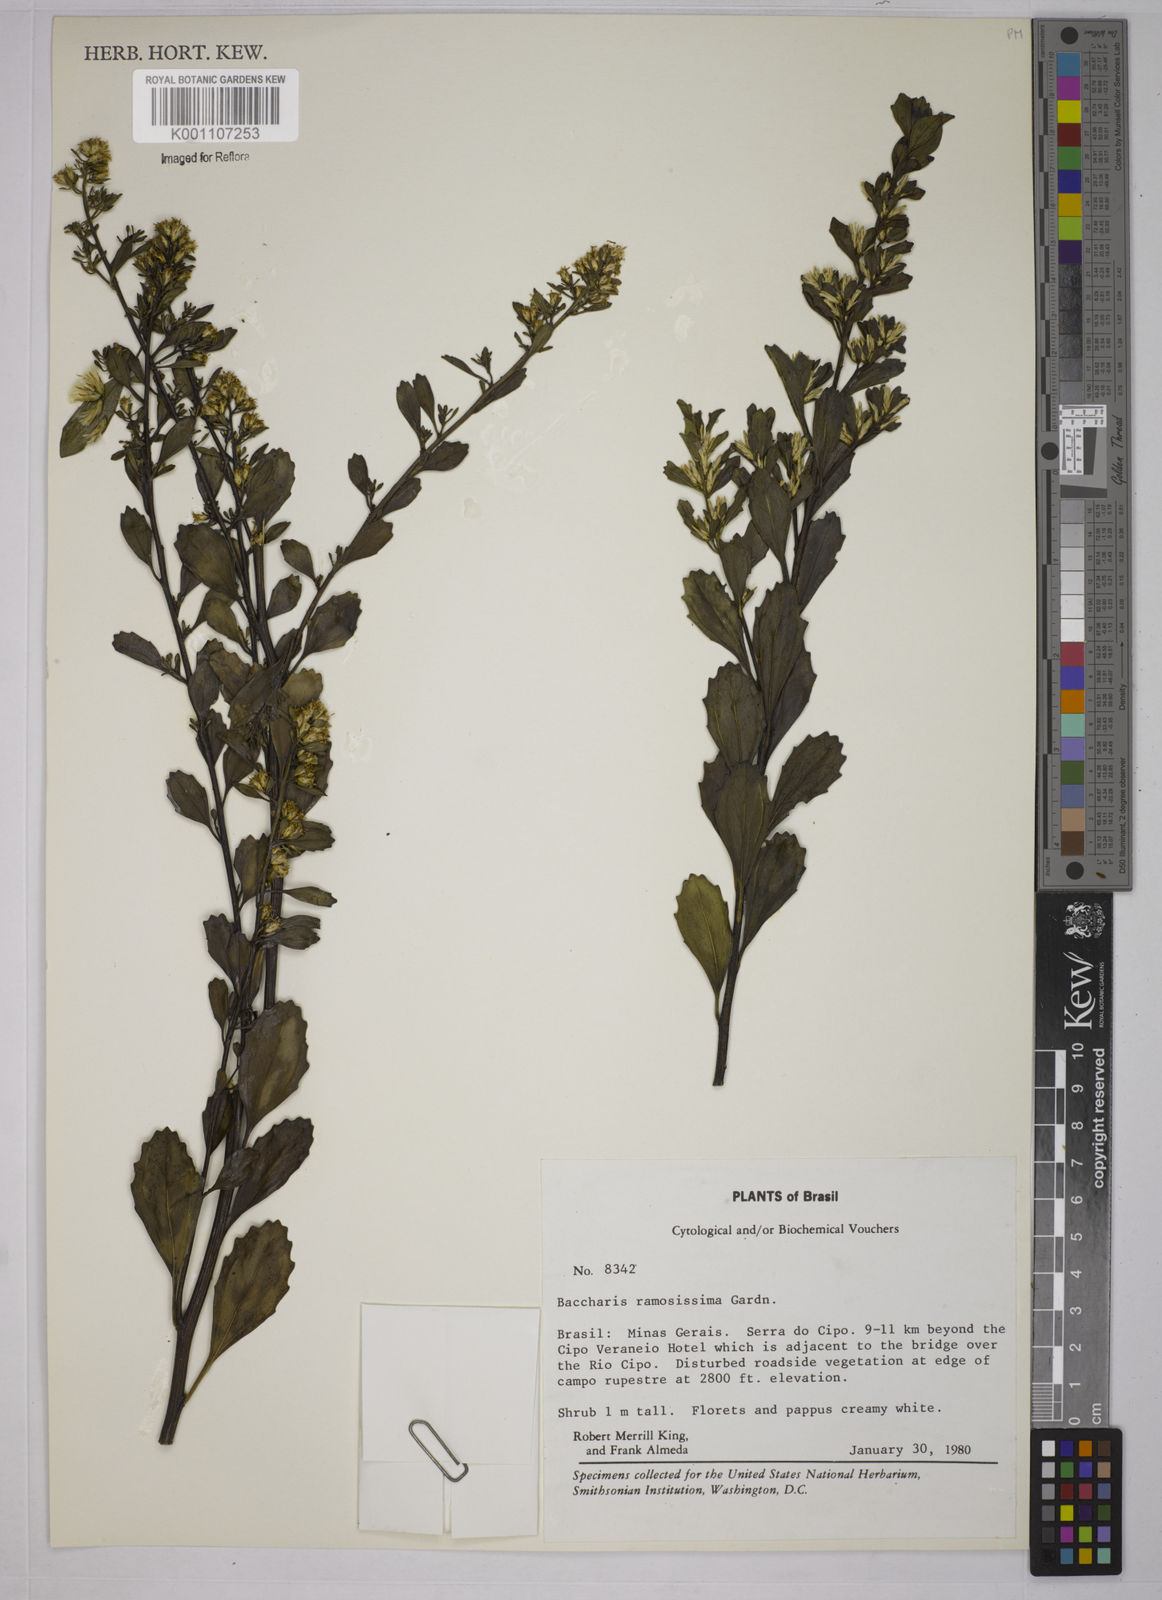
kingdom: Plantae
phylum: Tracheophyta
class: Magnoliopsida
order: Asterales
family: Asteraceae
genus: Baccharis
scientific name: Baccharis retusa
